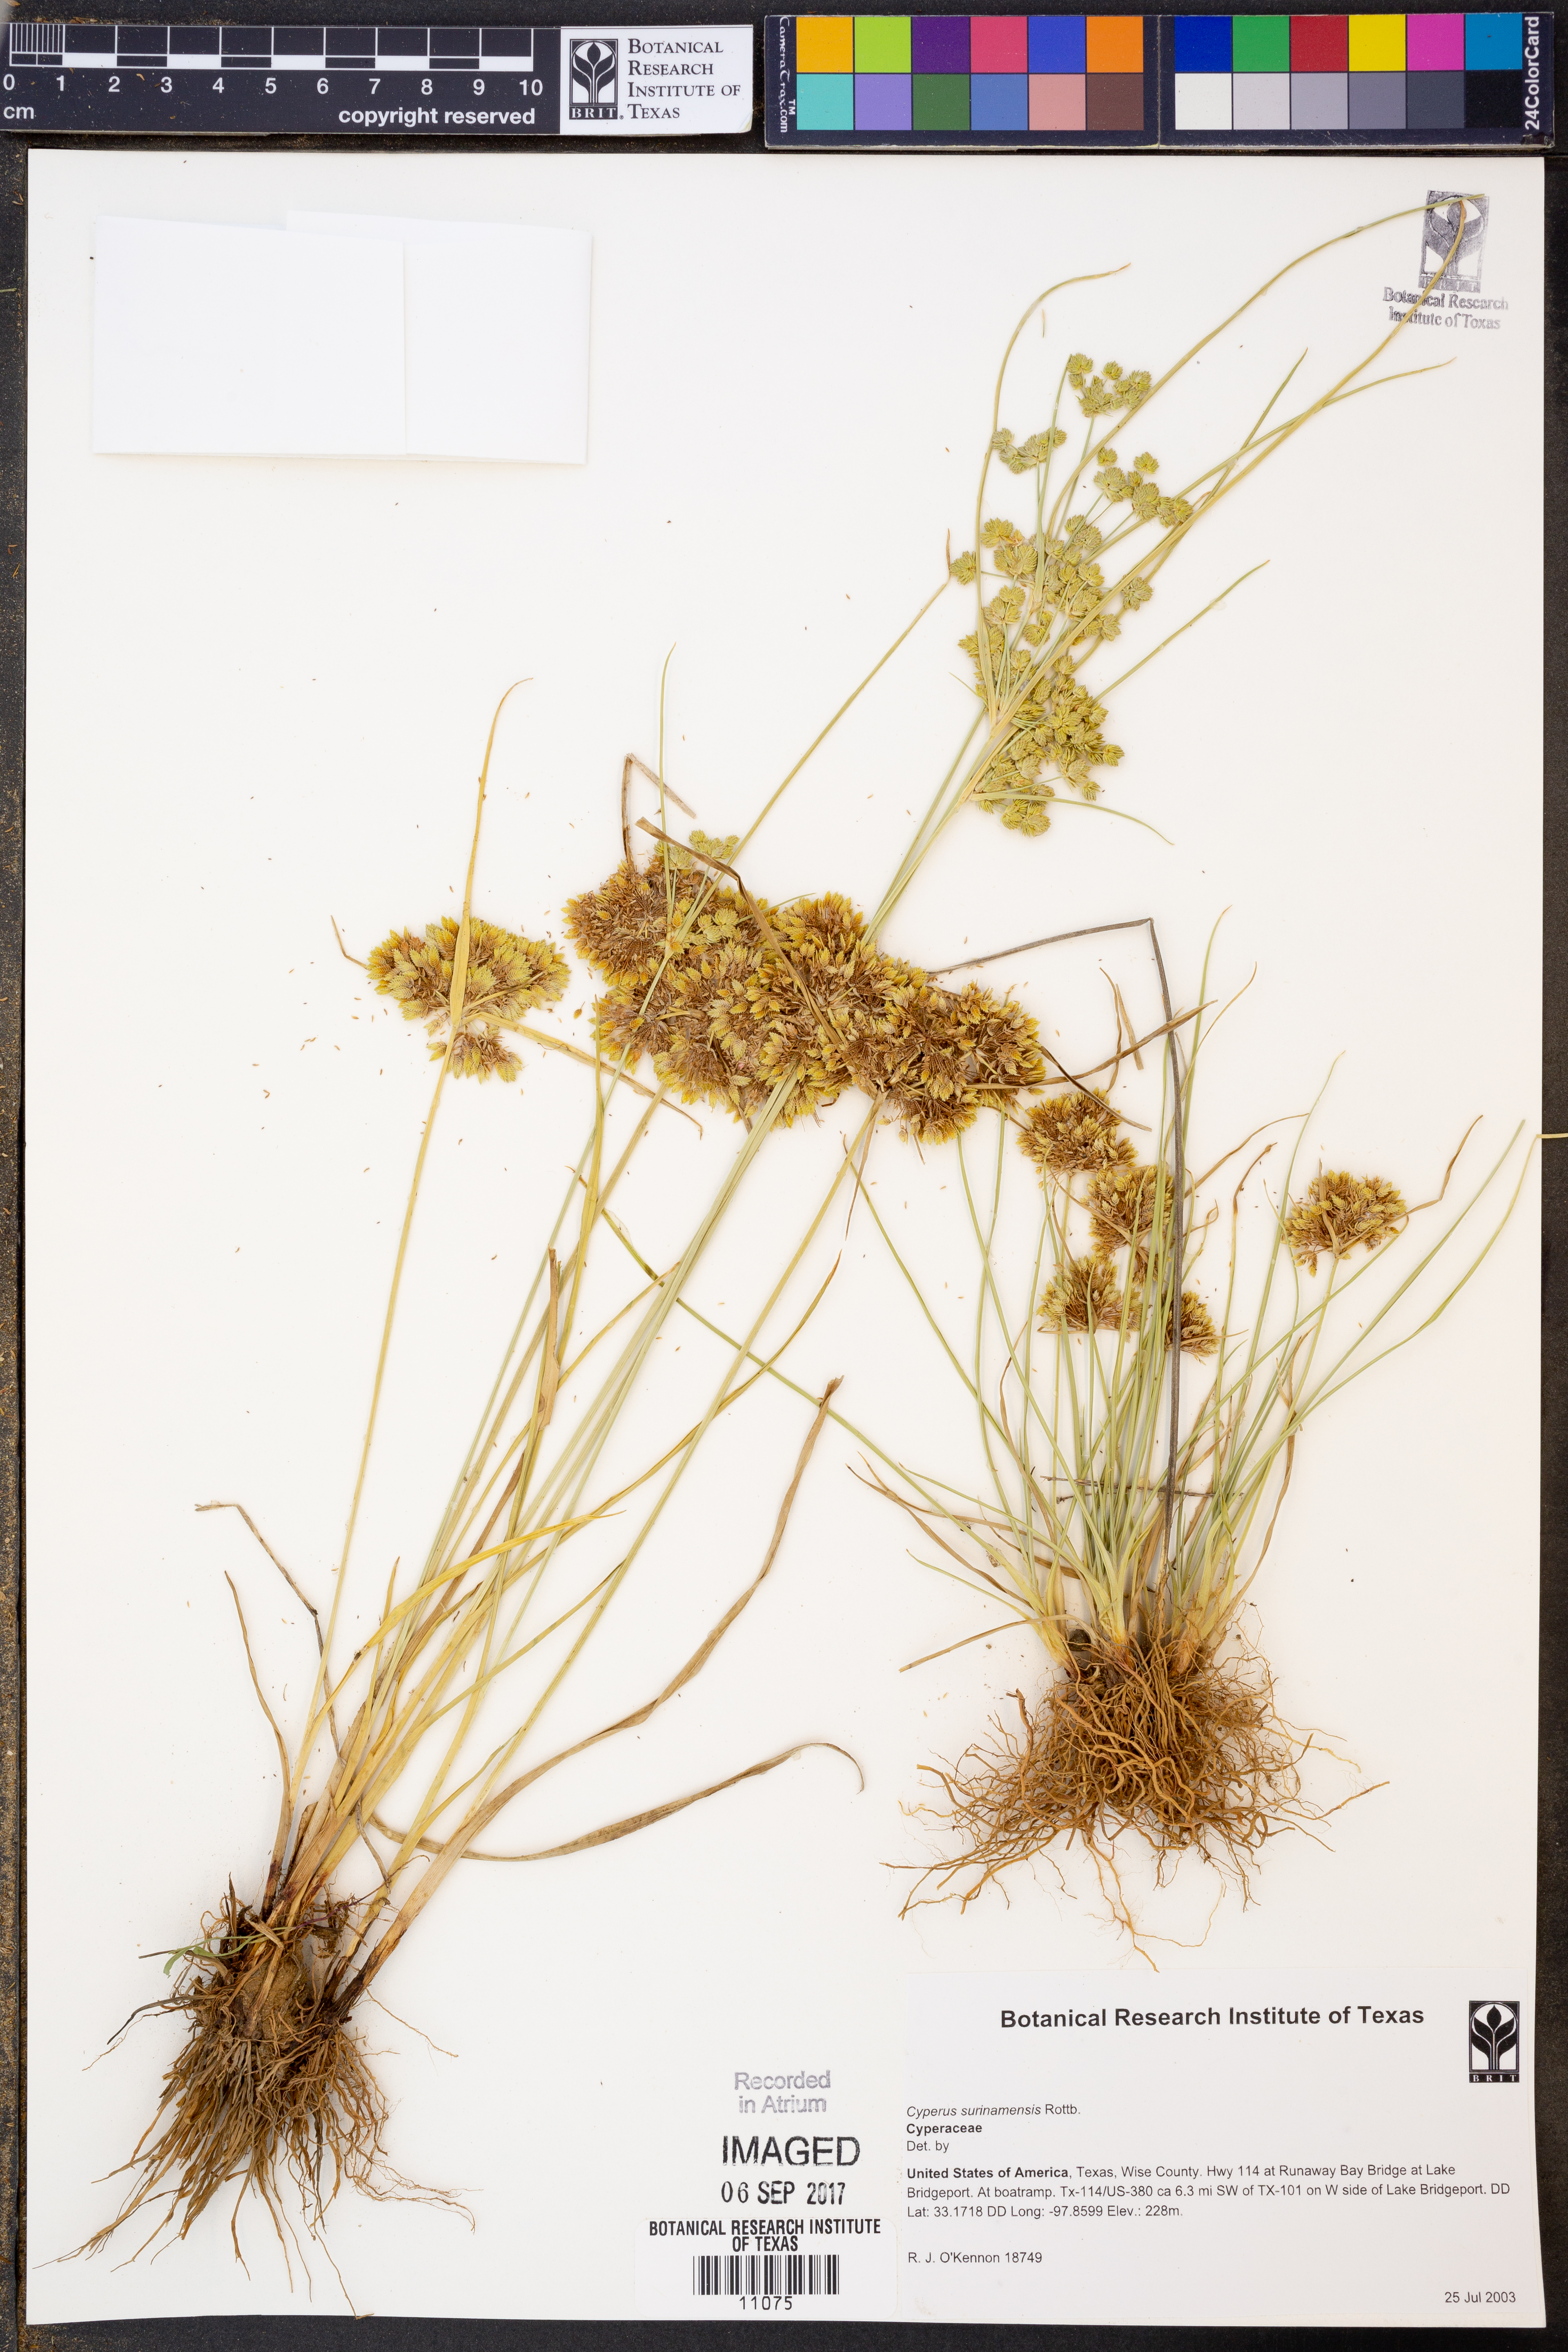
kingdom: Plantae
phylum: Tracheophyta
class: Liliopsida
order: Poales
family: Cyperaceae
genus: Cyperus
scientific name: Cyperus surinamensis
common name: Tropical flat sedge
